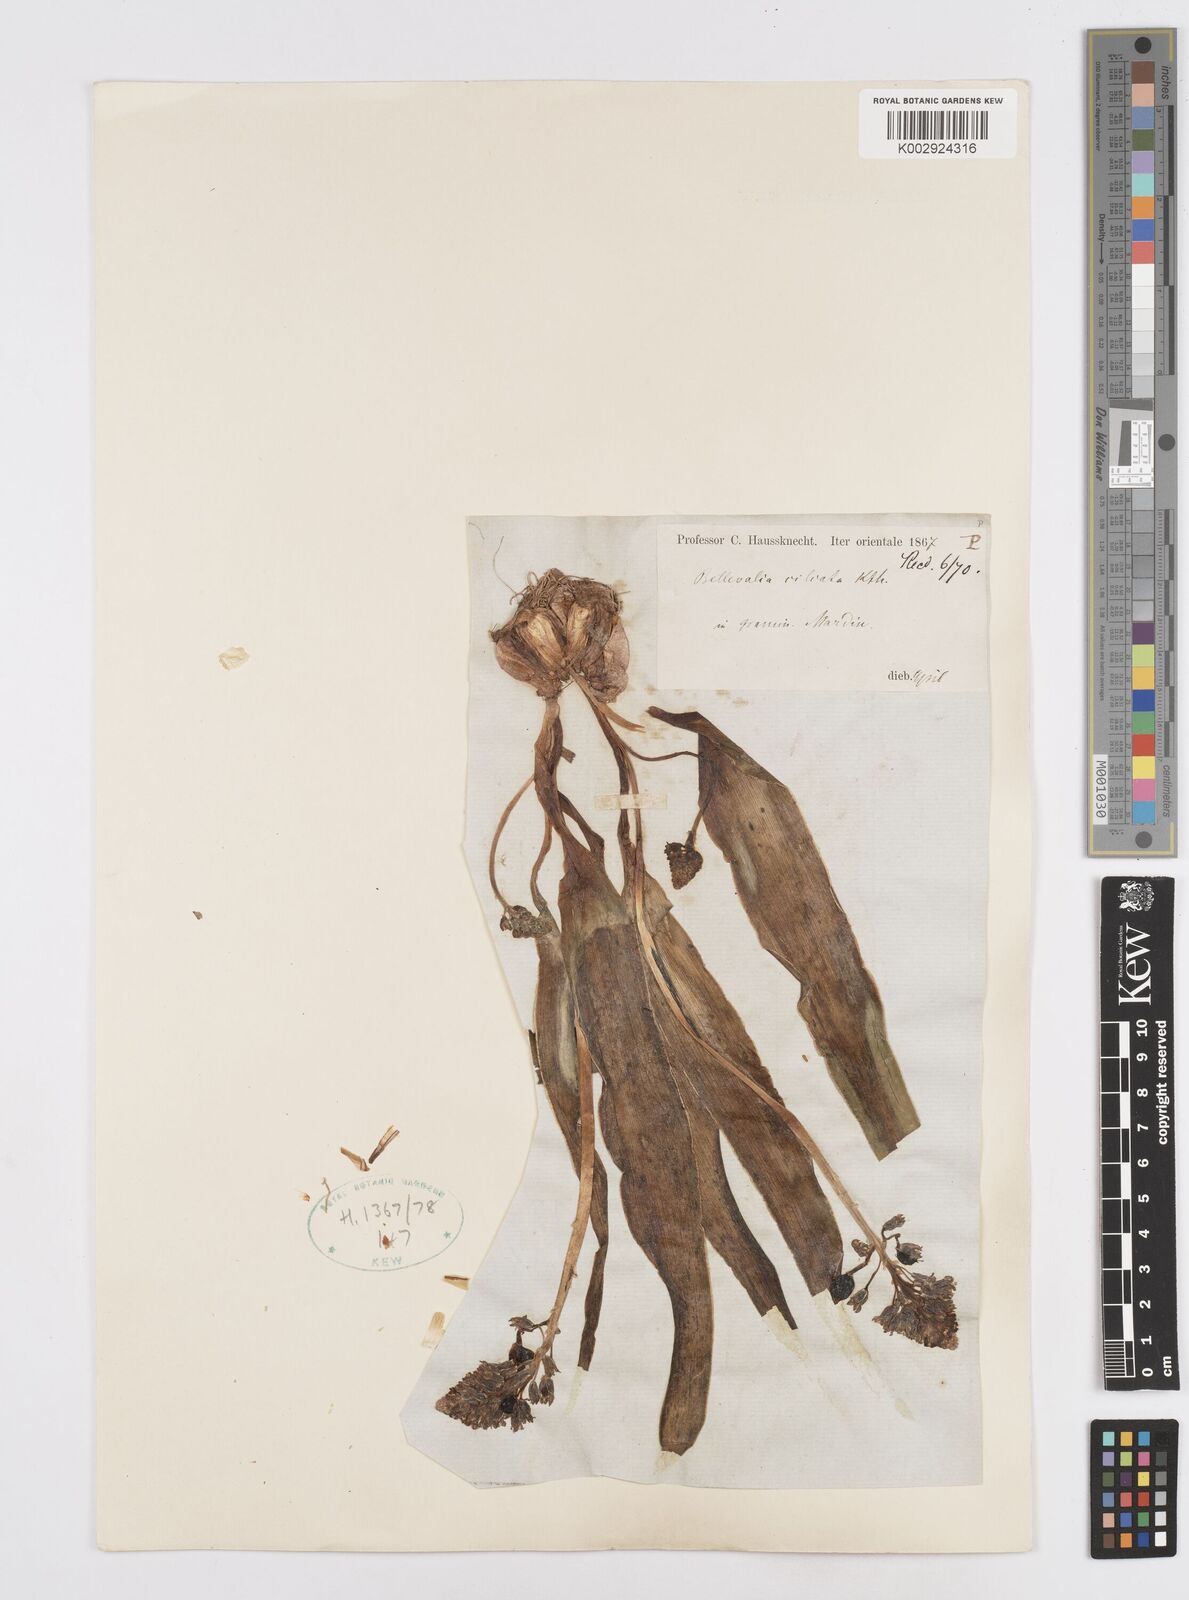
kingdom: Plantae
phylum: Tracheophyta
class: Liliopsida
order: Asparagales
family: Asparagaceae
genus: Bellevalia
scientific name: Bellevalia ciliata
